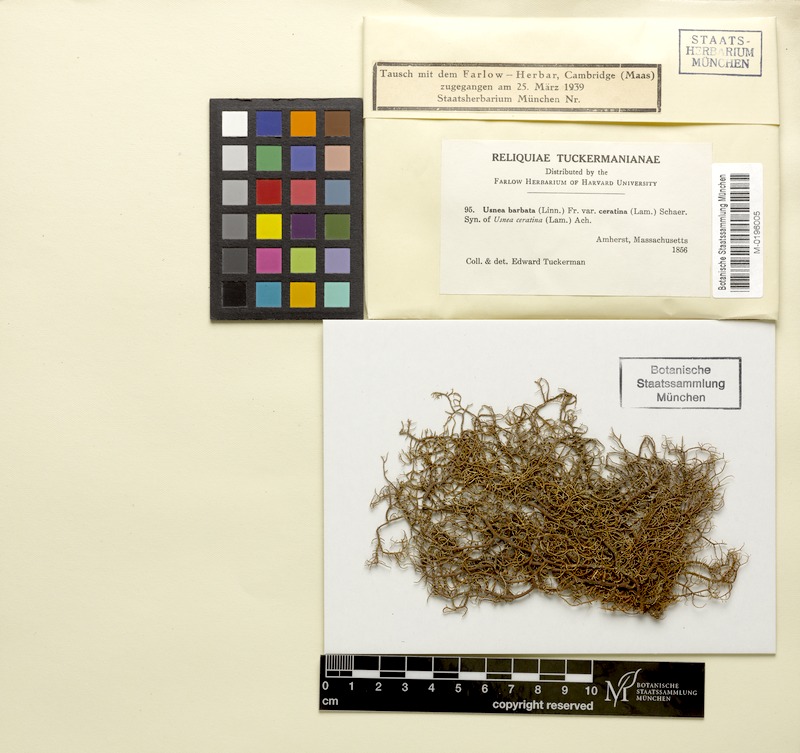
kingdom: Fungi
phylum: Ascomycota
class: Lecanoromycetes
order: Lecanorales
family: Parmeliaceae
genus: Usnea
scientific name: Usnea ceratina
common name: Warty beard lichen
